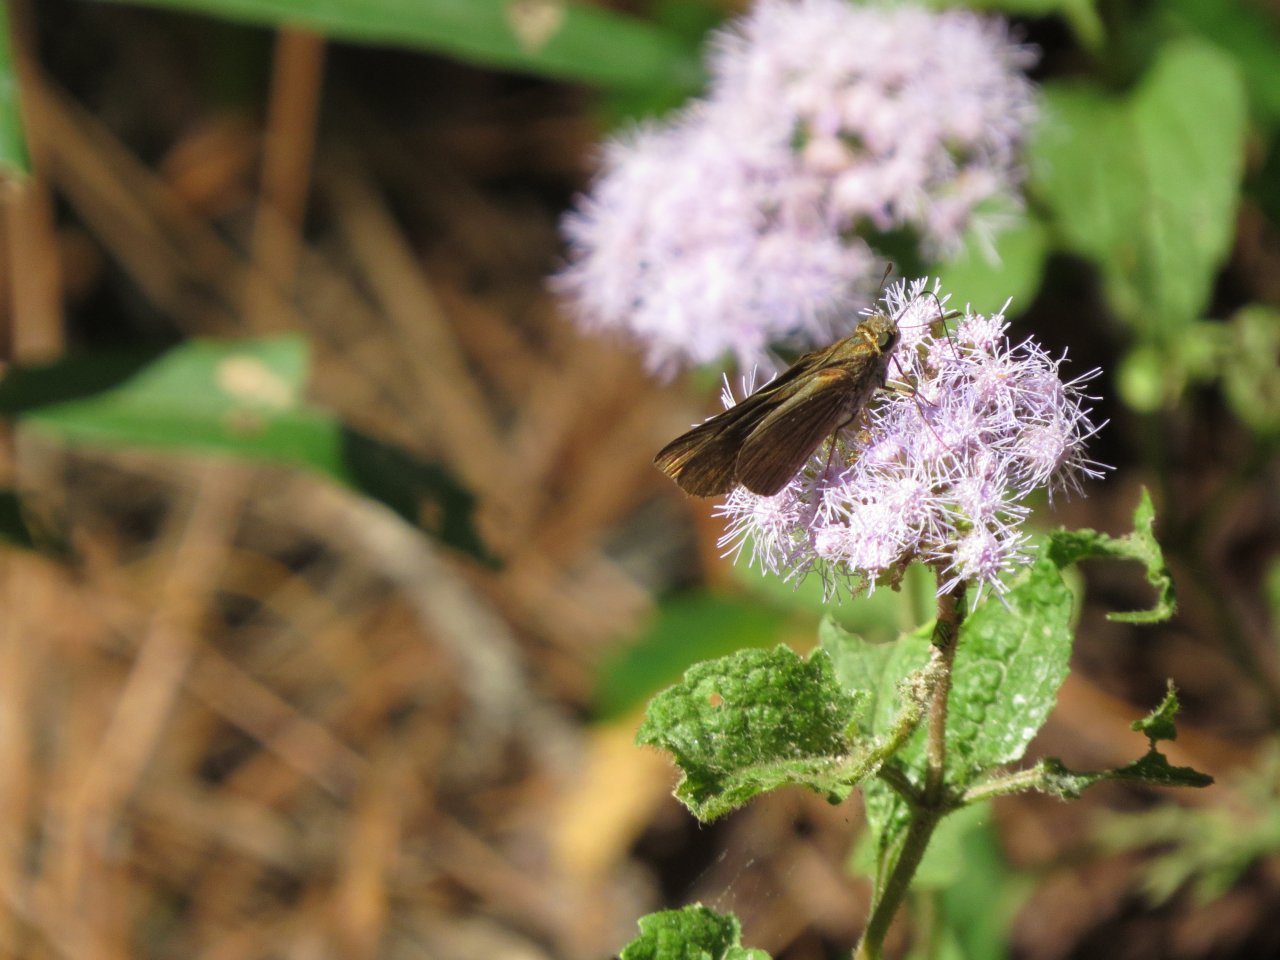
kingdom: Animalia
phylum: Arthropoda
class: Insecta
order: Lepidoptera
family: Hesperiidae
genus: Panoquina
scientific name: Panoquina ocola
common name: Ocola Skipper
